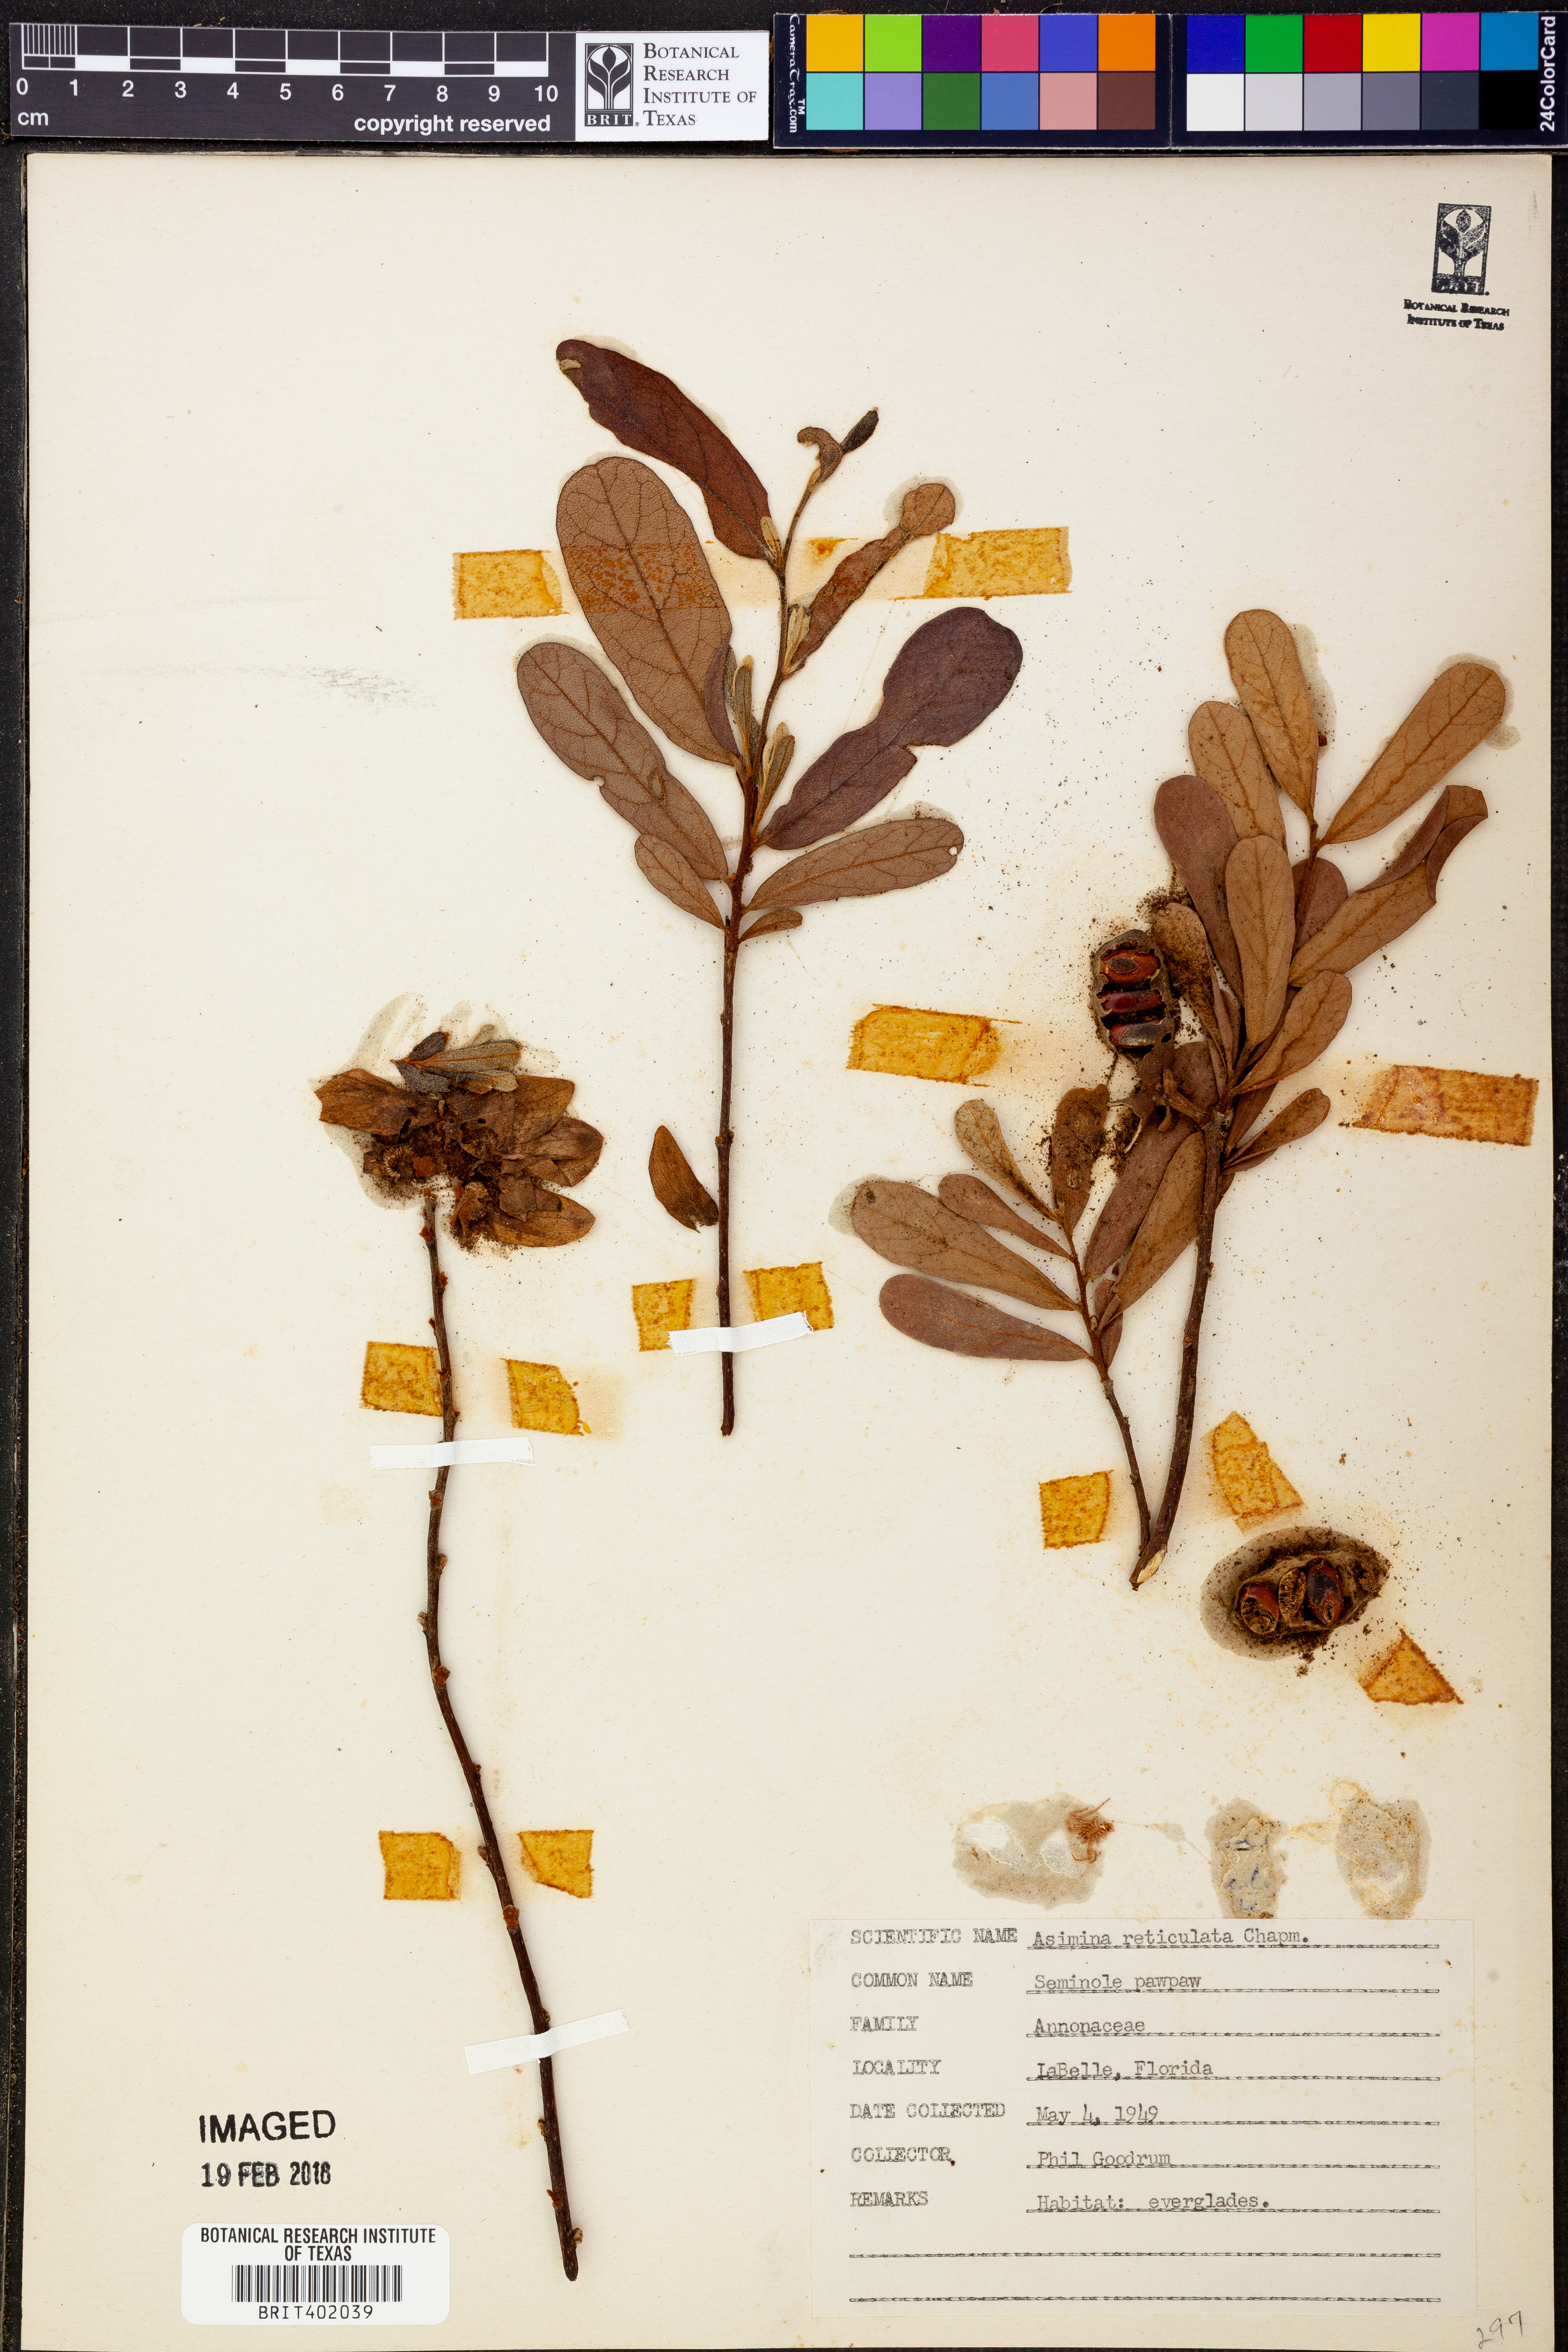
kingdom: Plantae
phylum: Tracheophyta
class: Magnoliopsida
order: Magnoliales
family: Annonaceae
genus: Asimina
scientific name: Asimina reticulata
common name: Flag pawpaw
